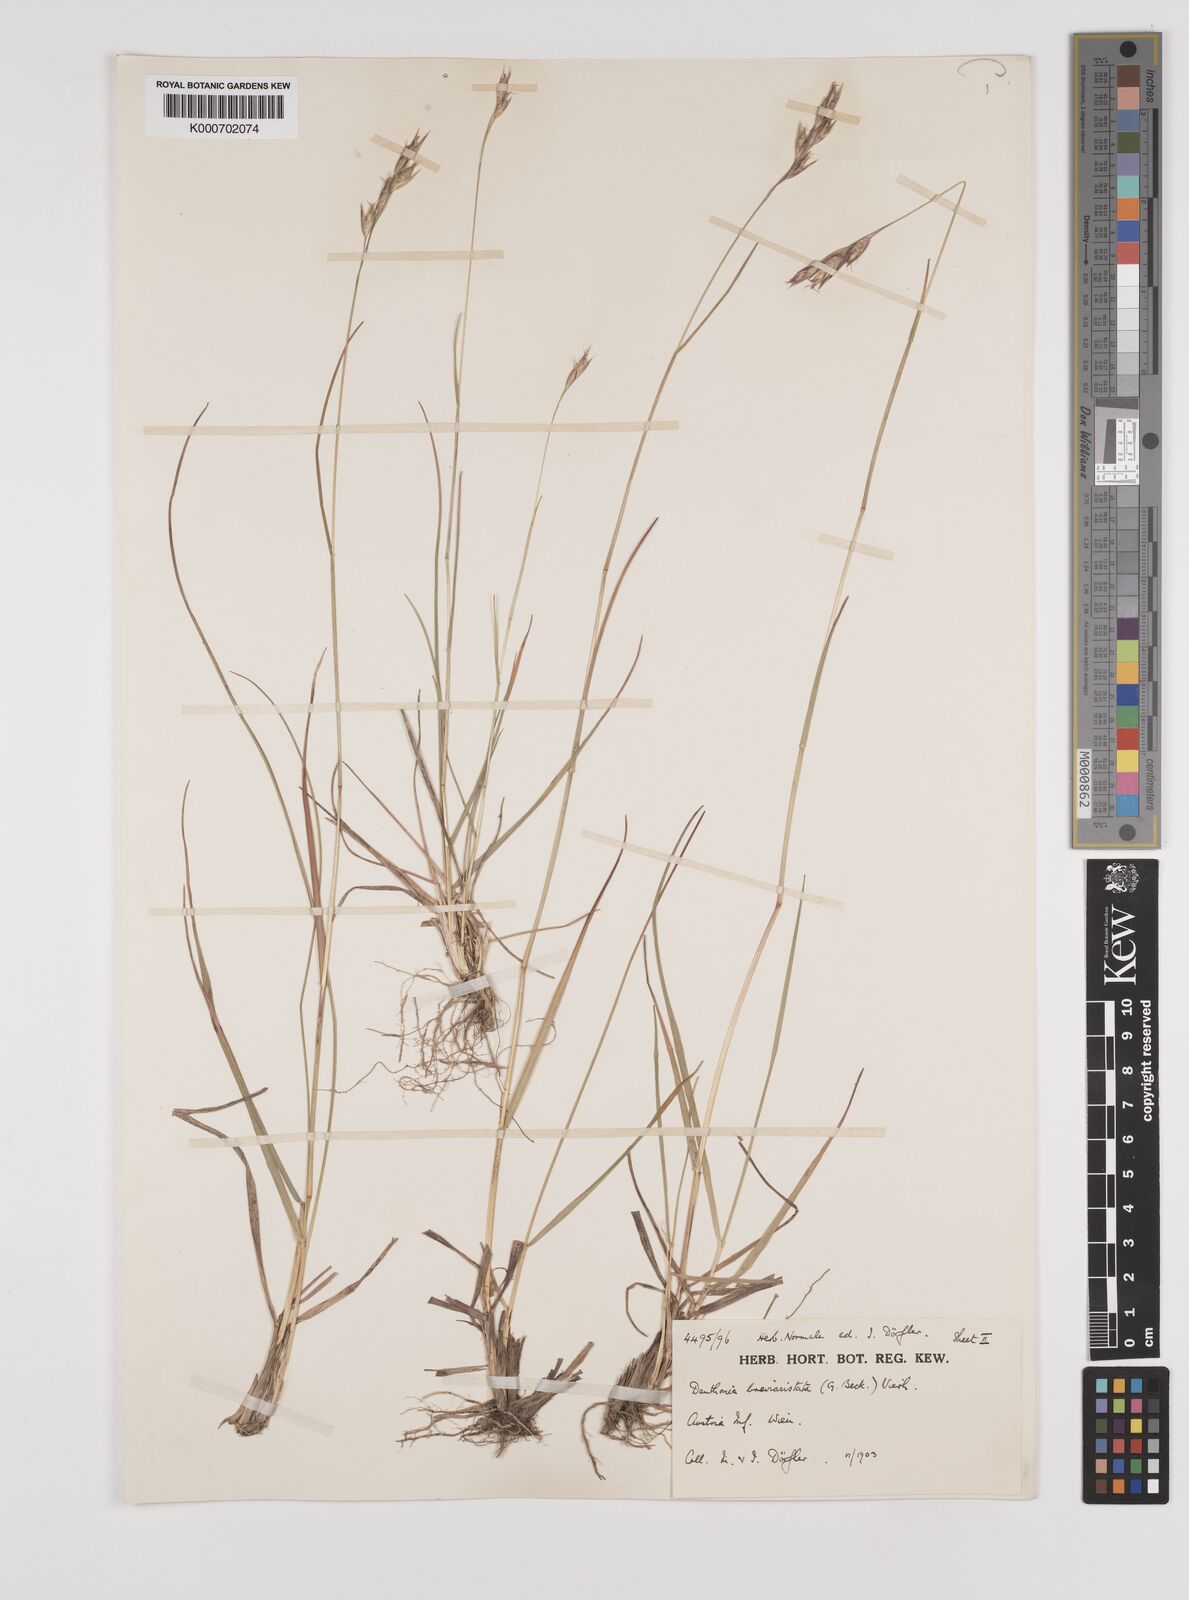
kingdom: Plantae
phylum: Tracheophyta
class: Liliopsida
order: Poales
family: Poaceae
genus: Danthonia
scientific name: Danthonia breviaristata
